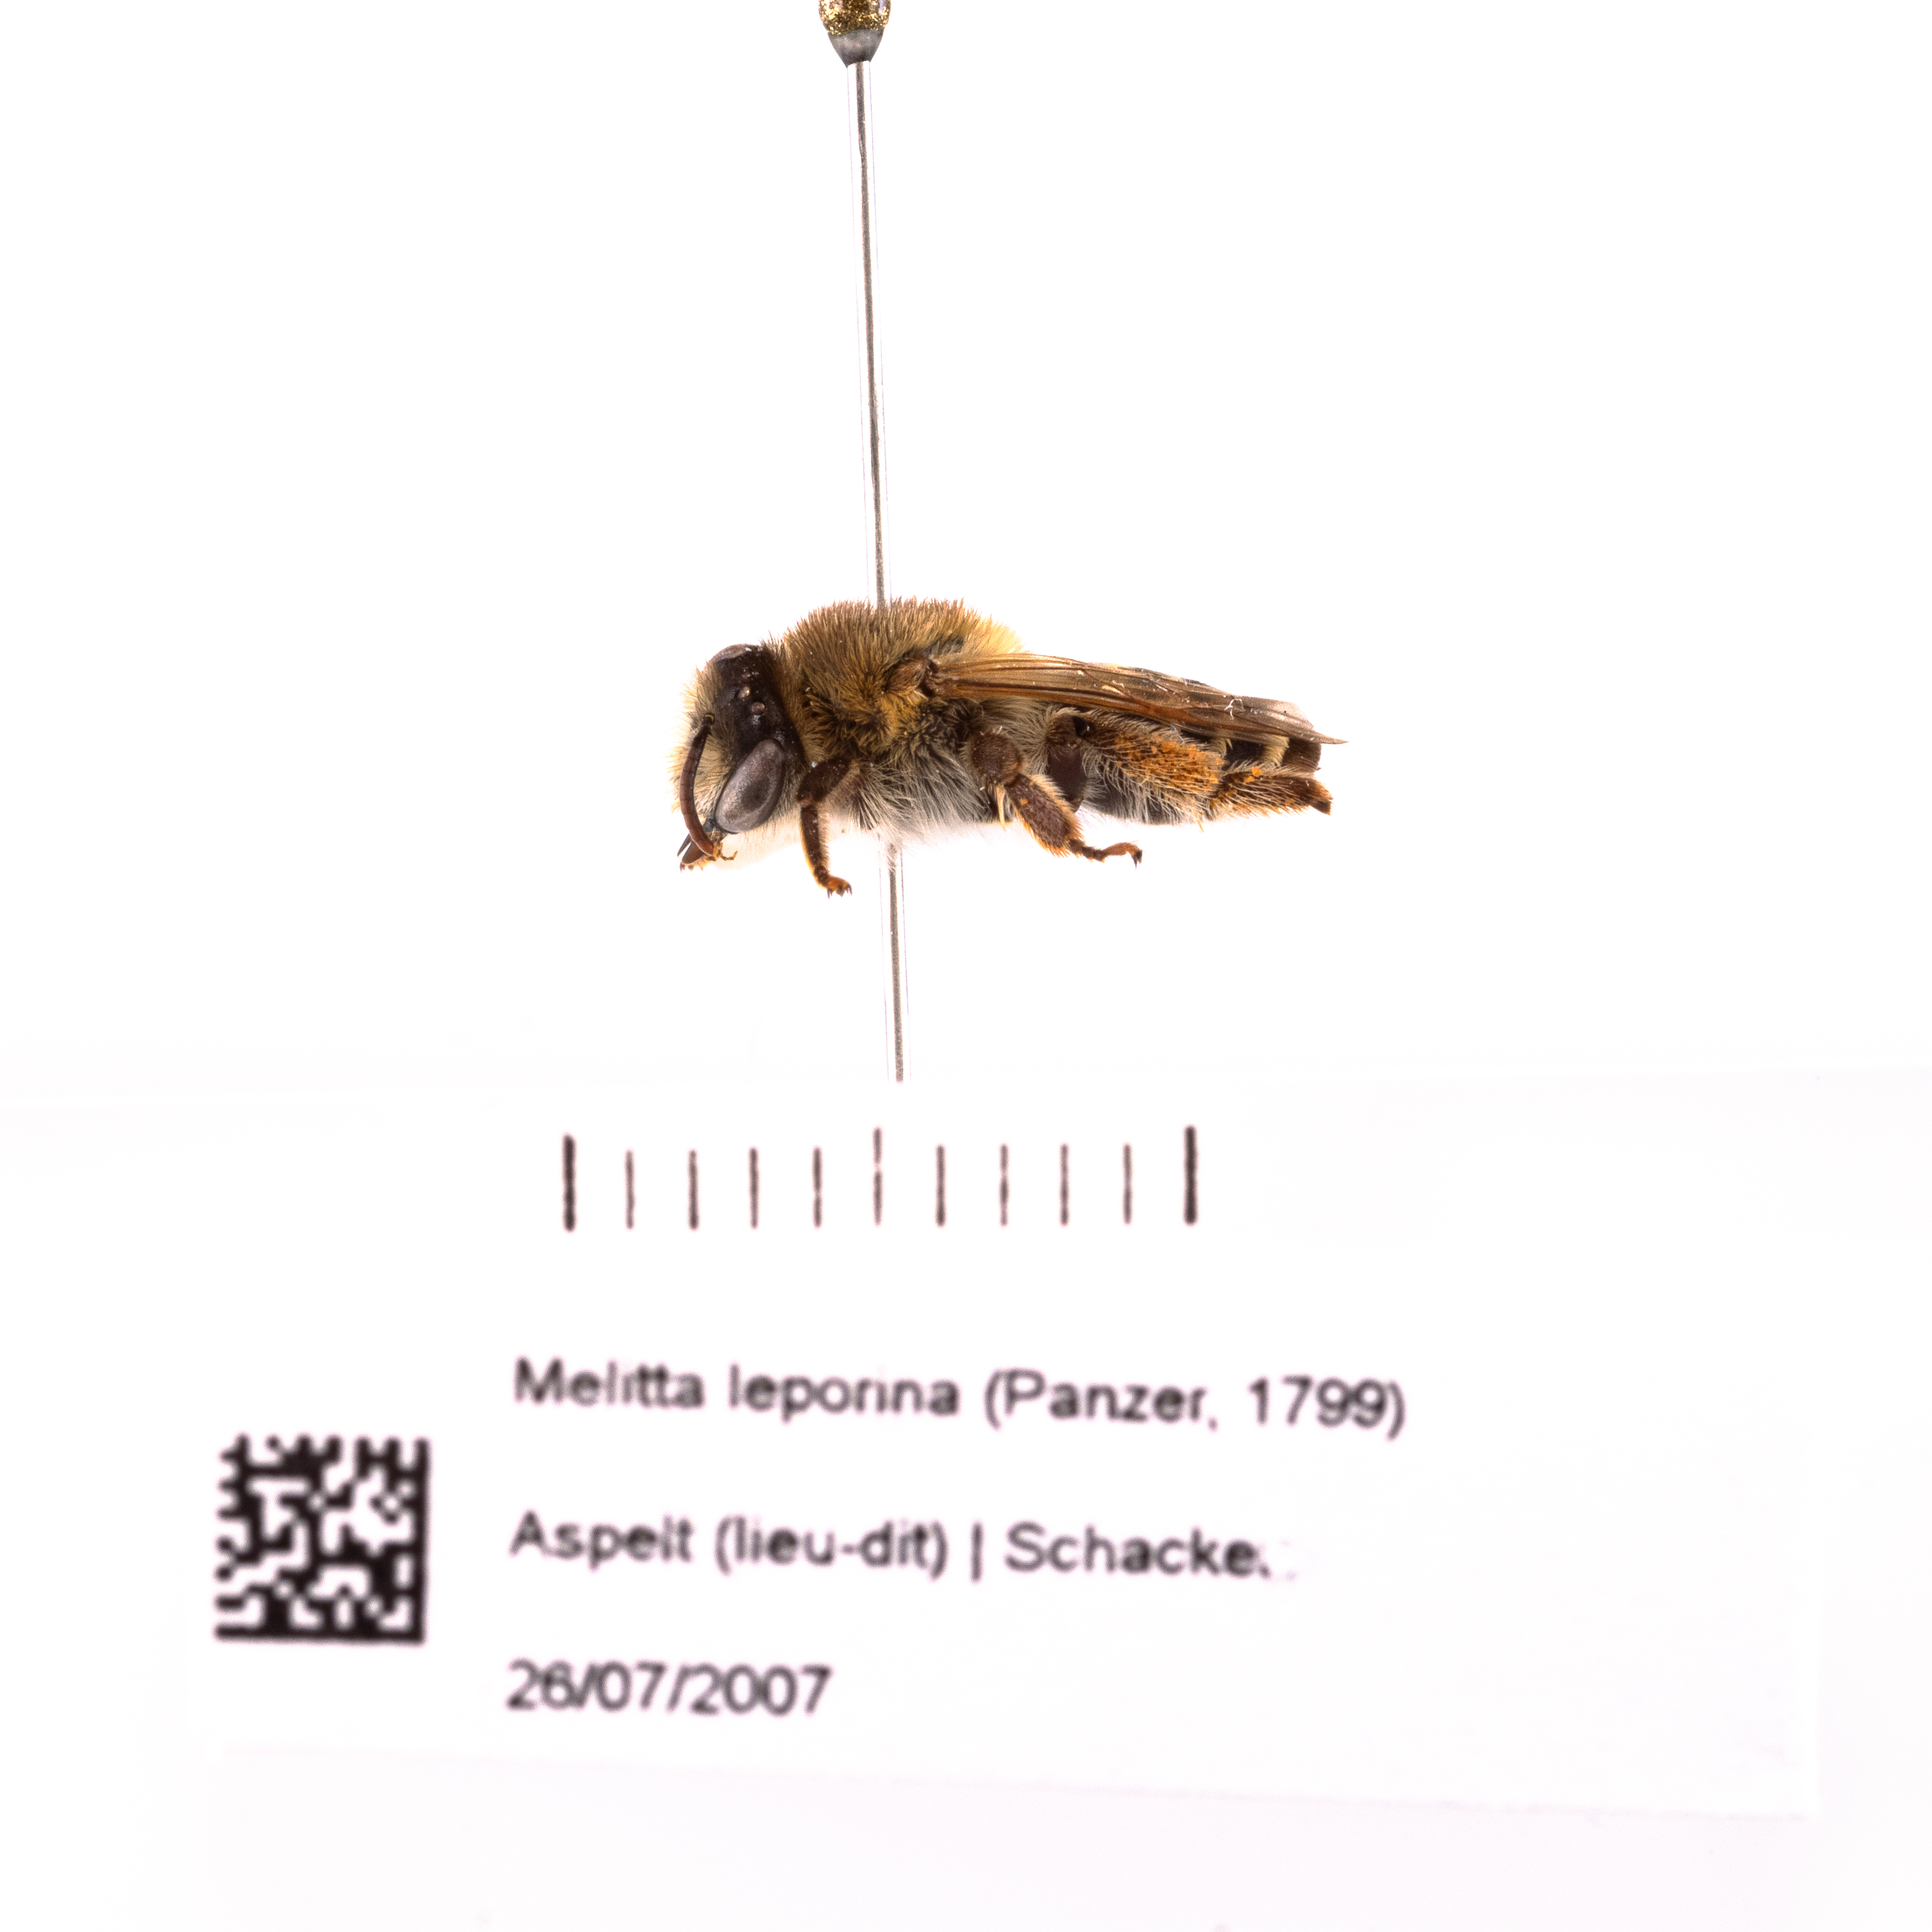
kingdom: Animalia
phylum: Arthropoda
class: Insecta
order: Hymenoptera
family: Melittidae
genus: Melitta
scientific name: Melitta leporina
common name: Clover melitta
